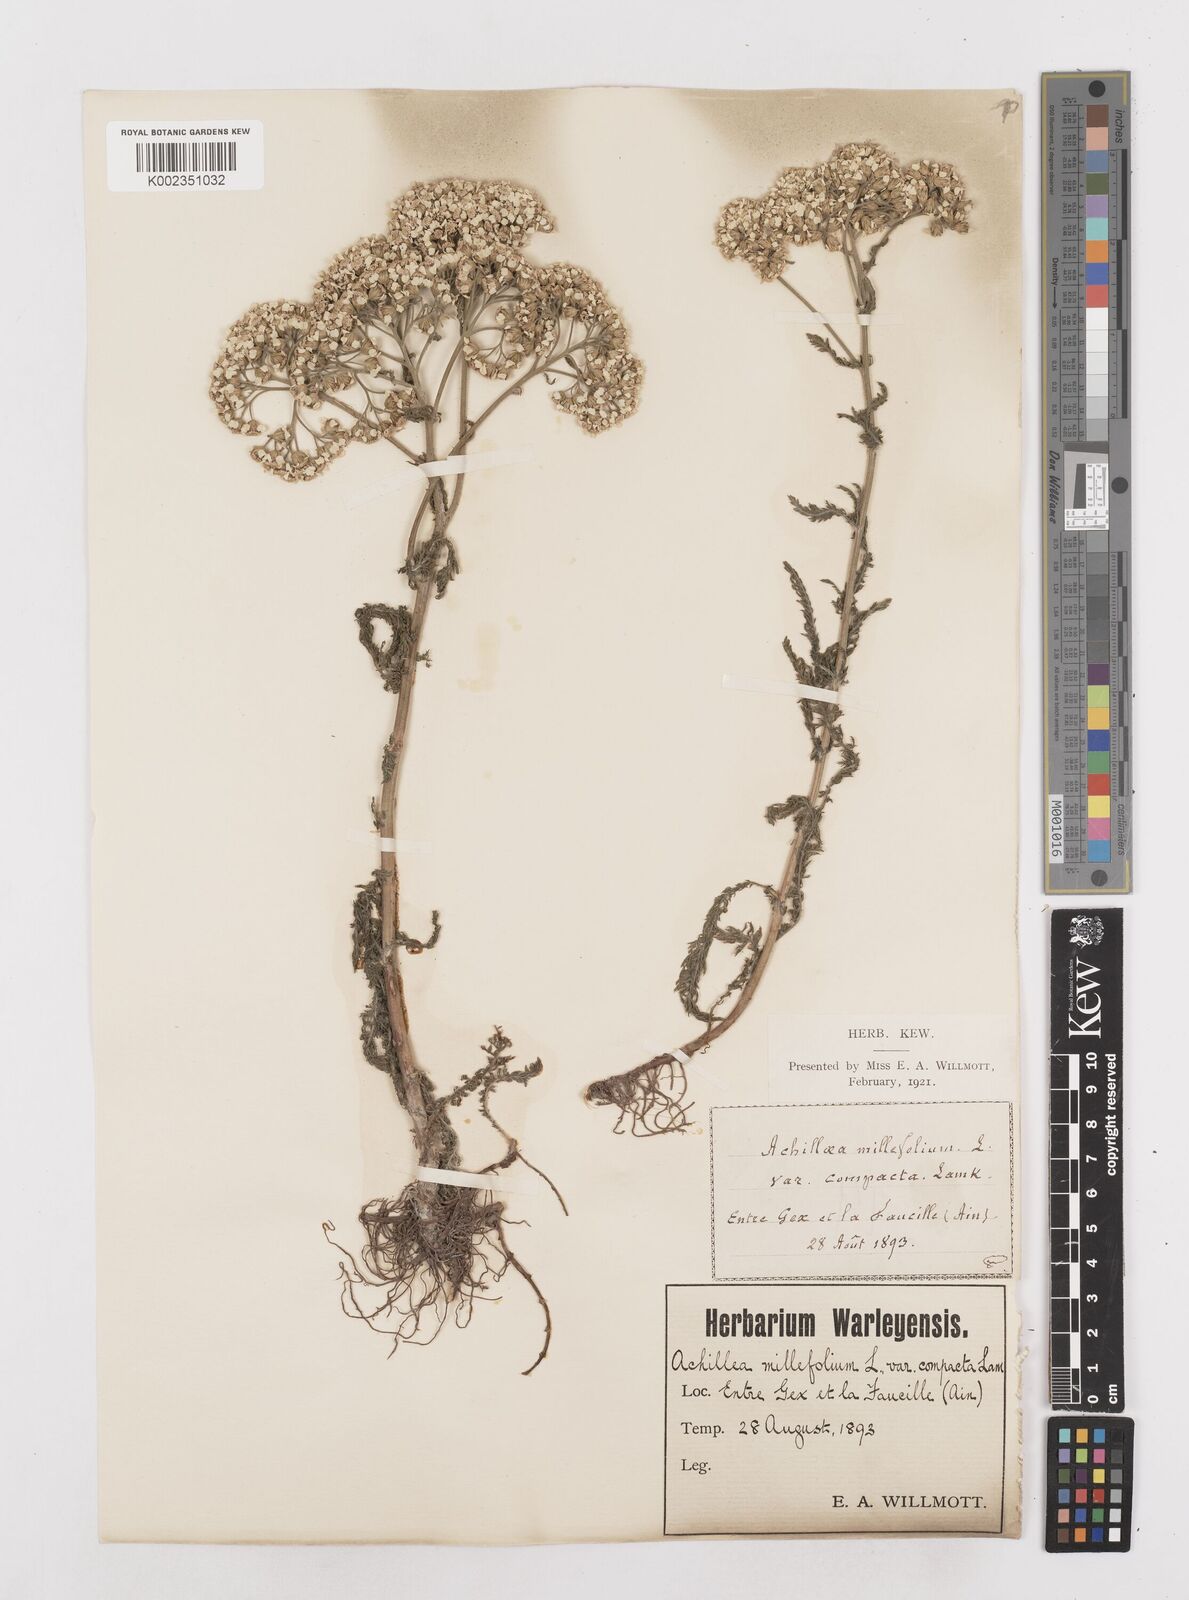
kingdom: Plantae
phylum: Tracheophyta
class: Magnoliopsida
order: Asterales
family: Asteraceae
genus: Achillea
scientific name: Achillea millefolium
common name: Yarrow
